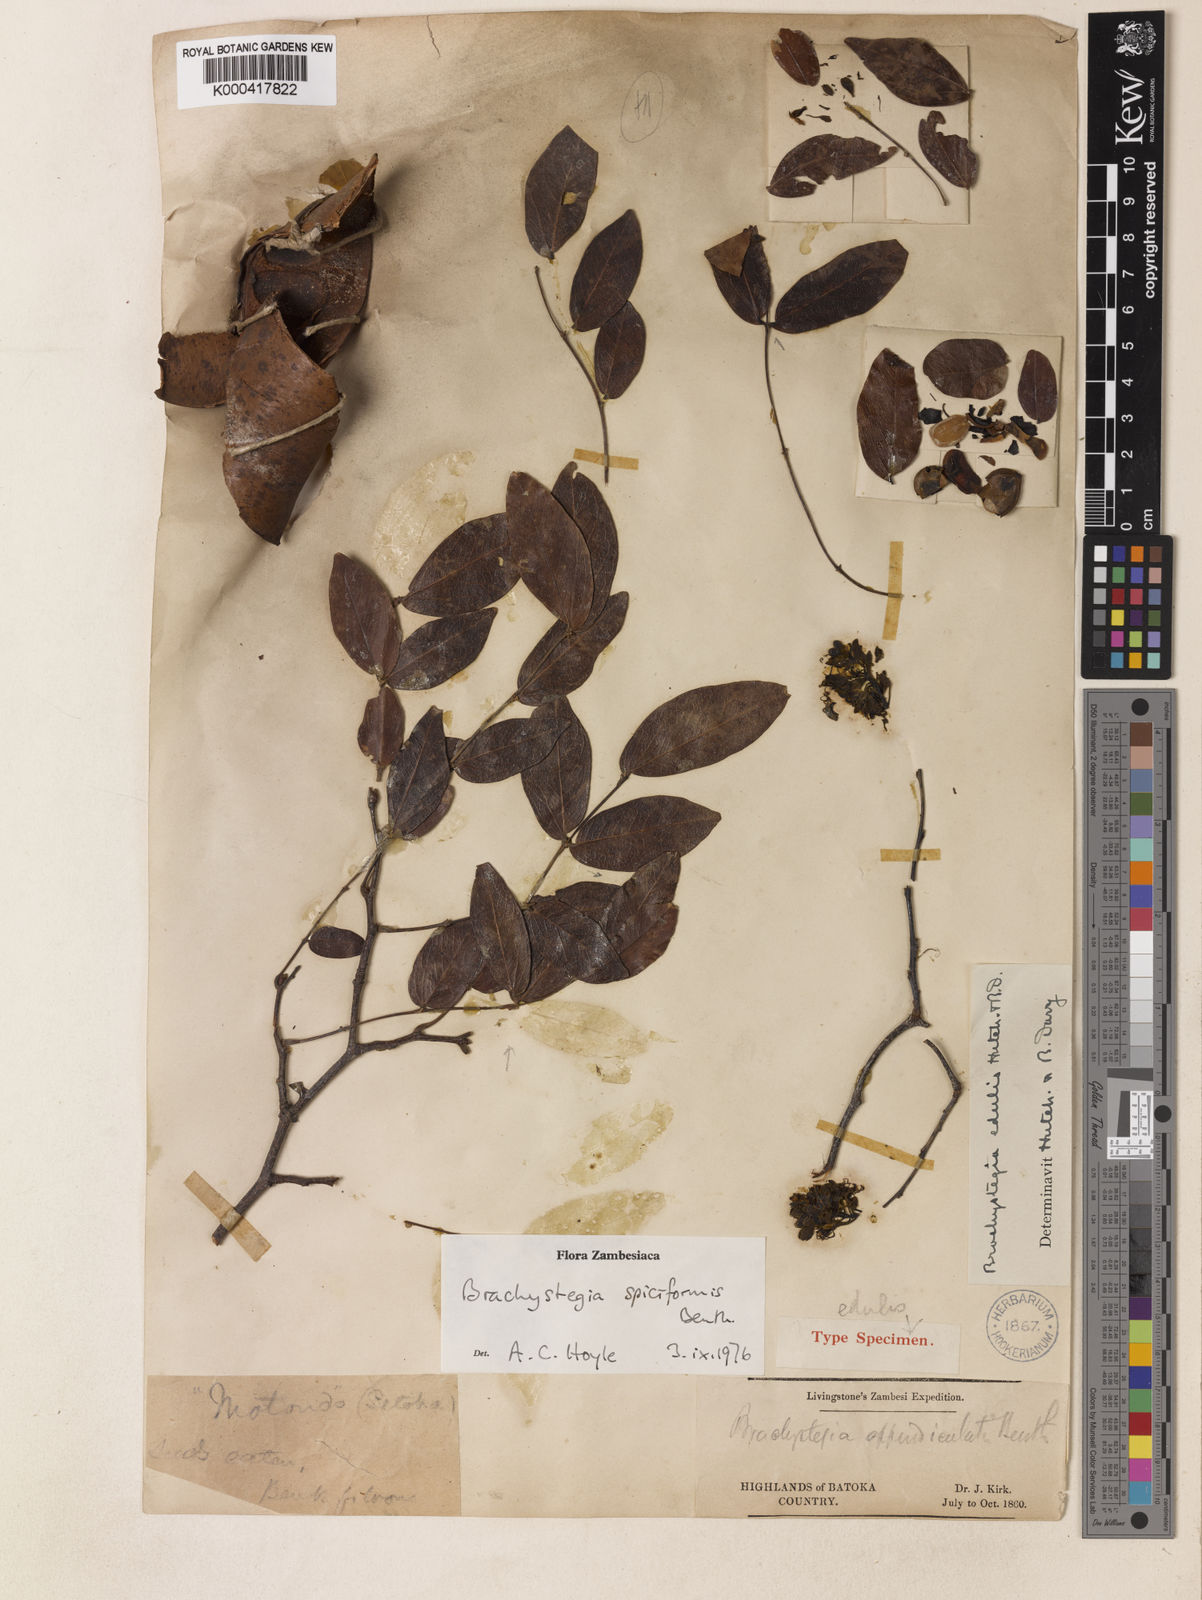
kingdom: Plantae
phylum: Tracheophyta
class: Magnoliopsida
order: Fabales
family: Fabaceae
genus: Brachystegia
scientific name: Brachystegia spiciformis
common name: Zebrawood
